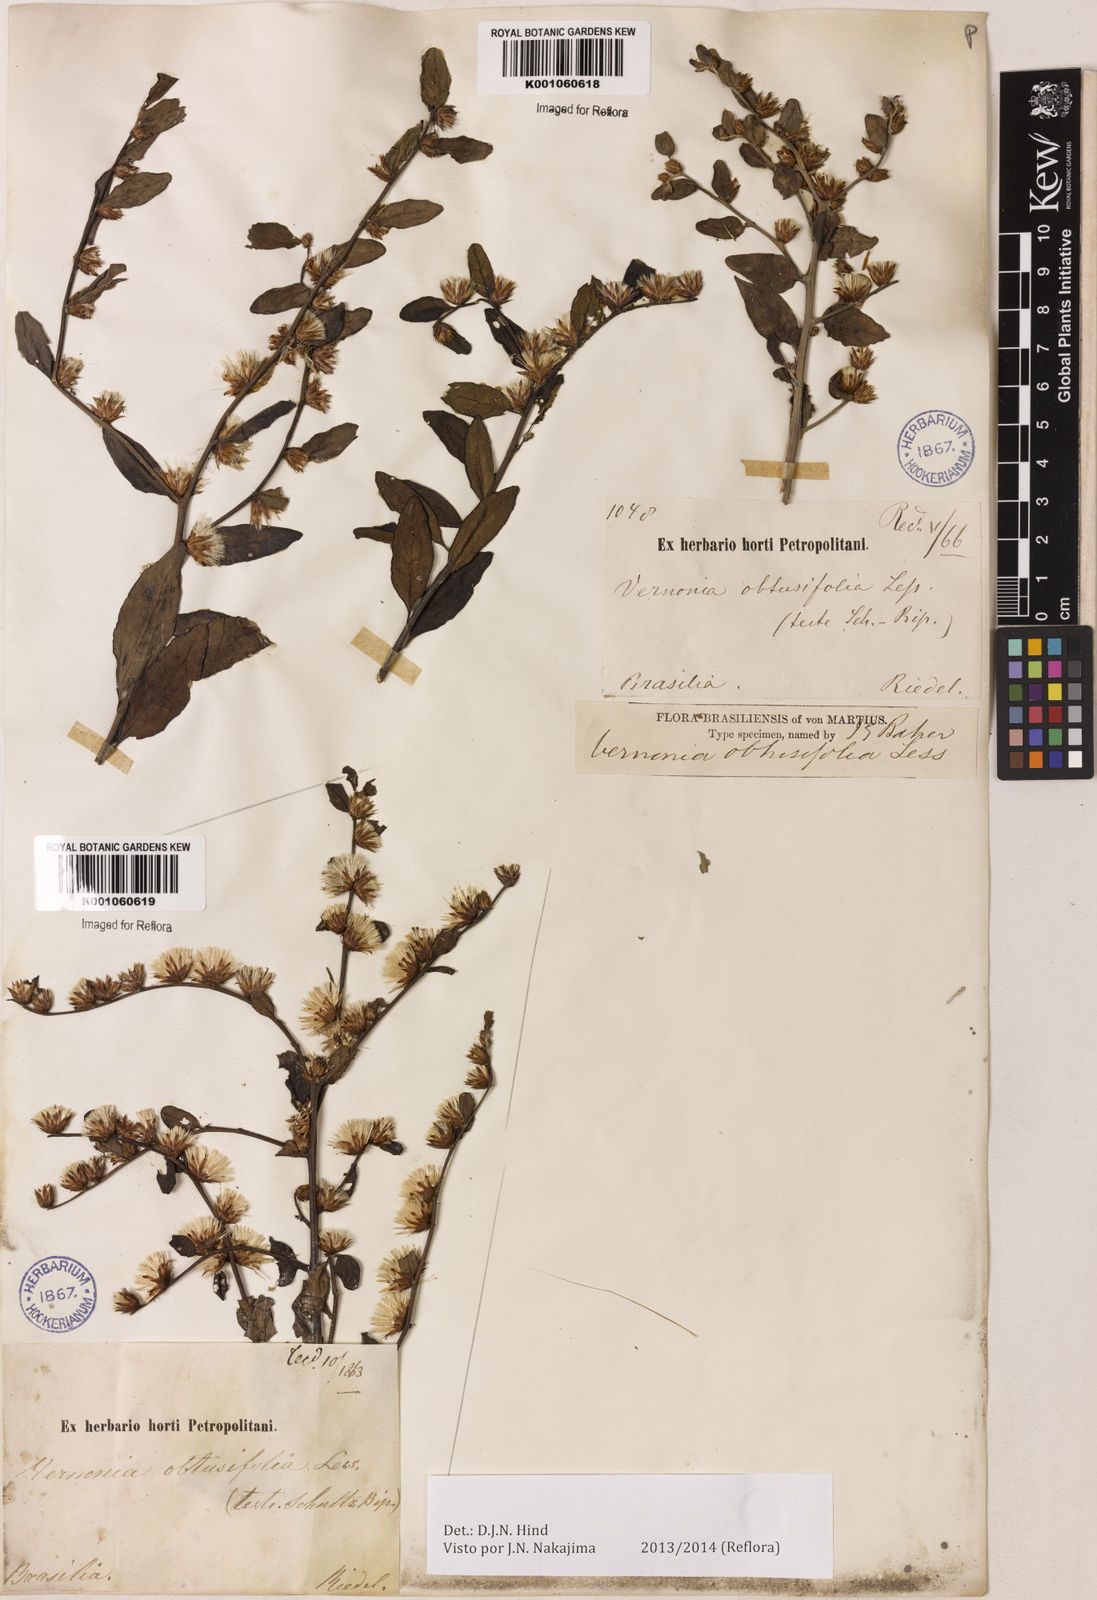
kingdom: Plantae
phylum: Tracheophyta
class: Magnoliopsida
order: Asterales
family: Asteraceae
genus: Lepidaploa
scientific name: Lepidaploa obtusifolia
